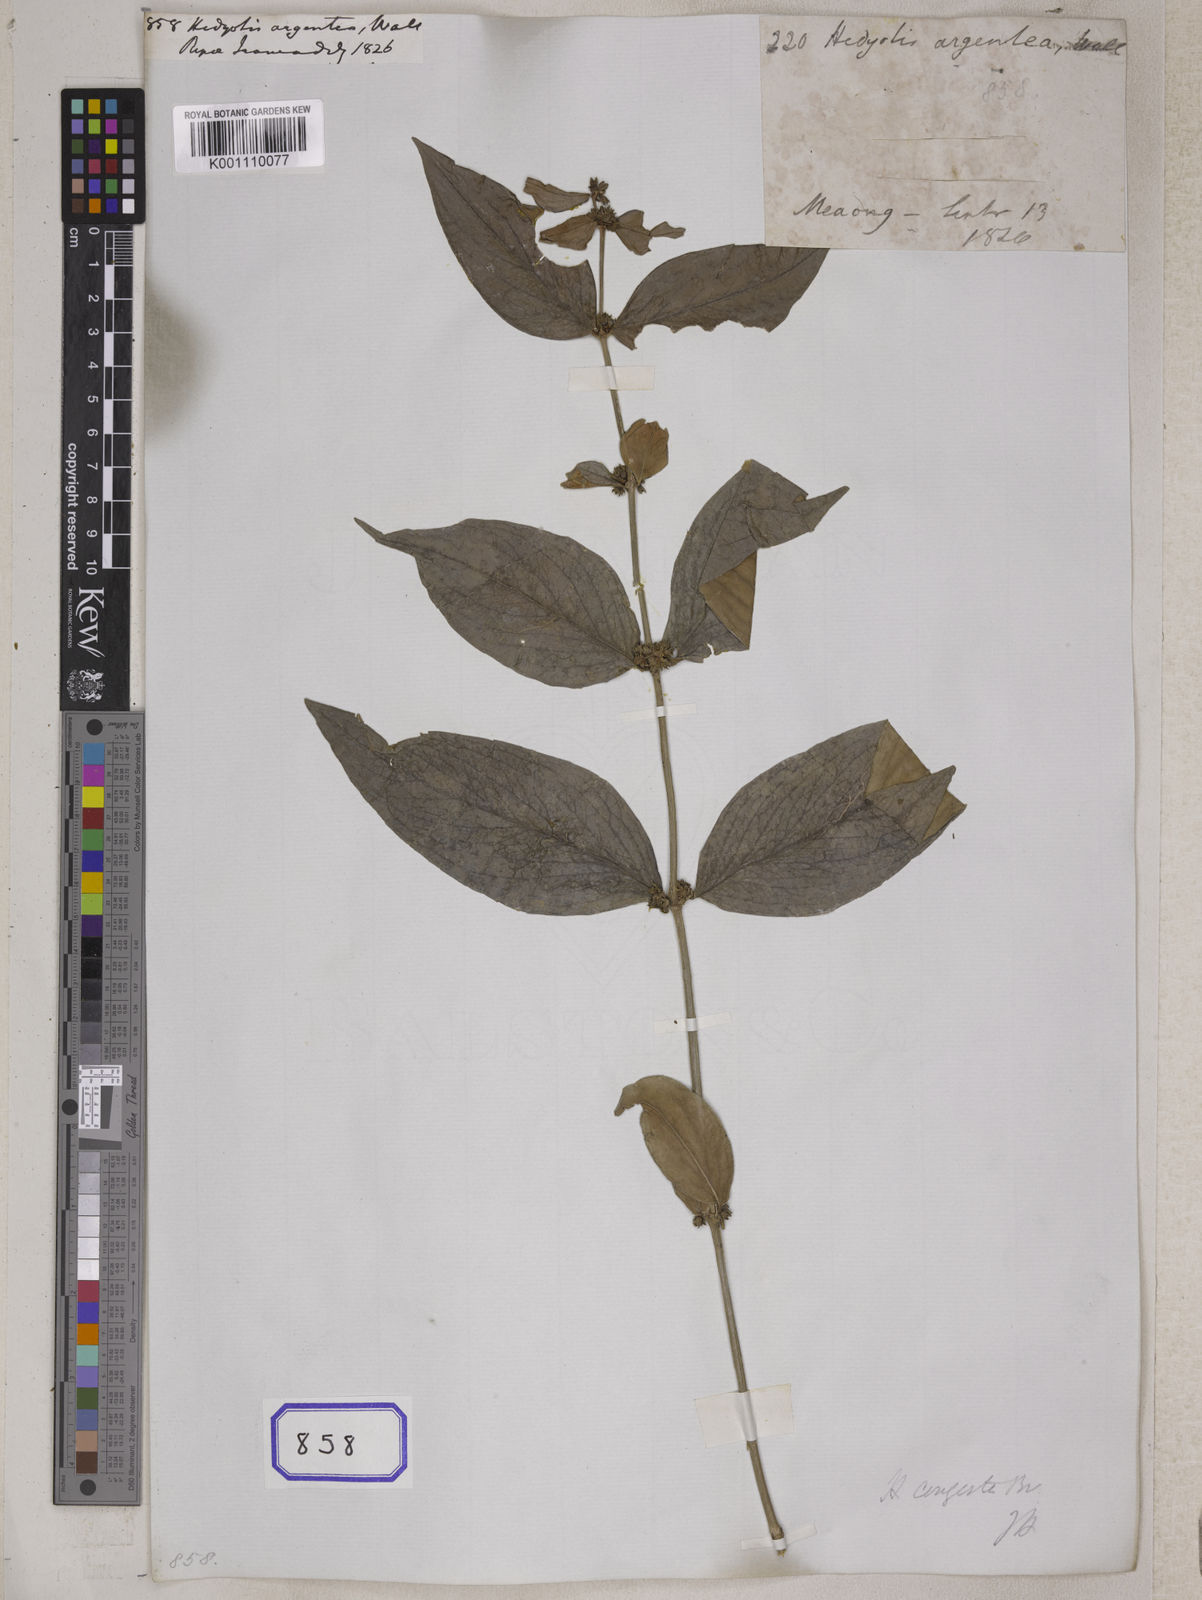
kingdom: Plantae
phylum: Tracheophyta
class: Magnoliopsida
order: Gentianales
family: Rubiaceae
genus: Hedyotis
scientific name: Hedyotis
